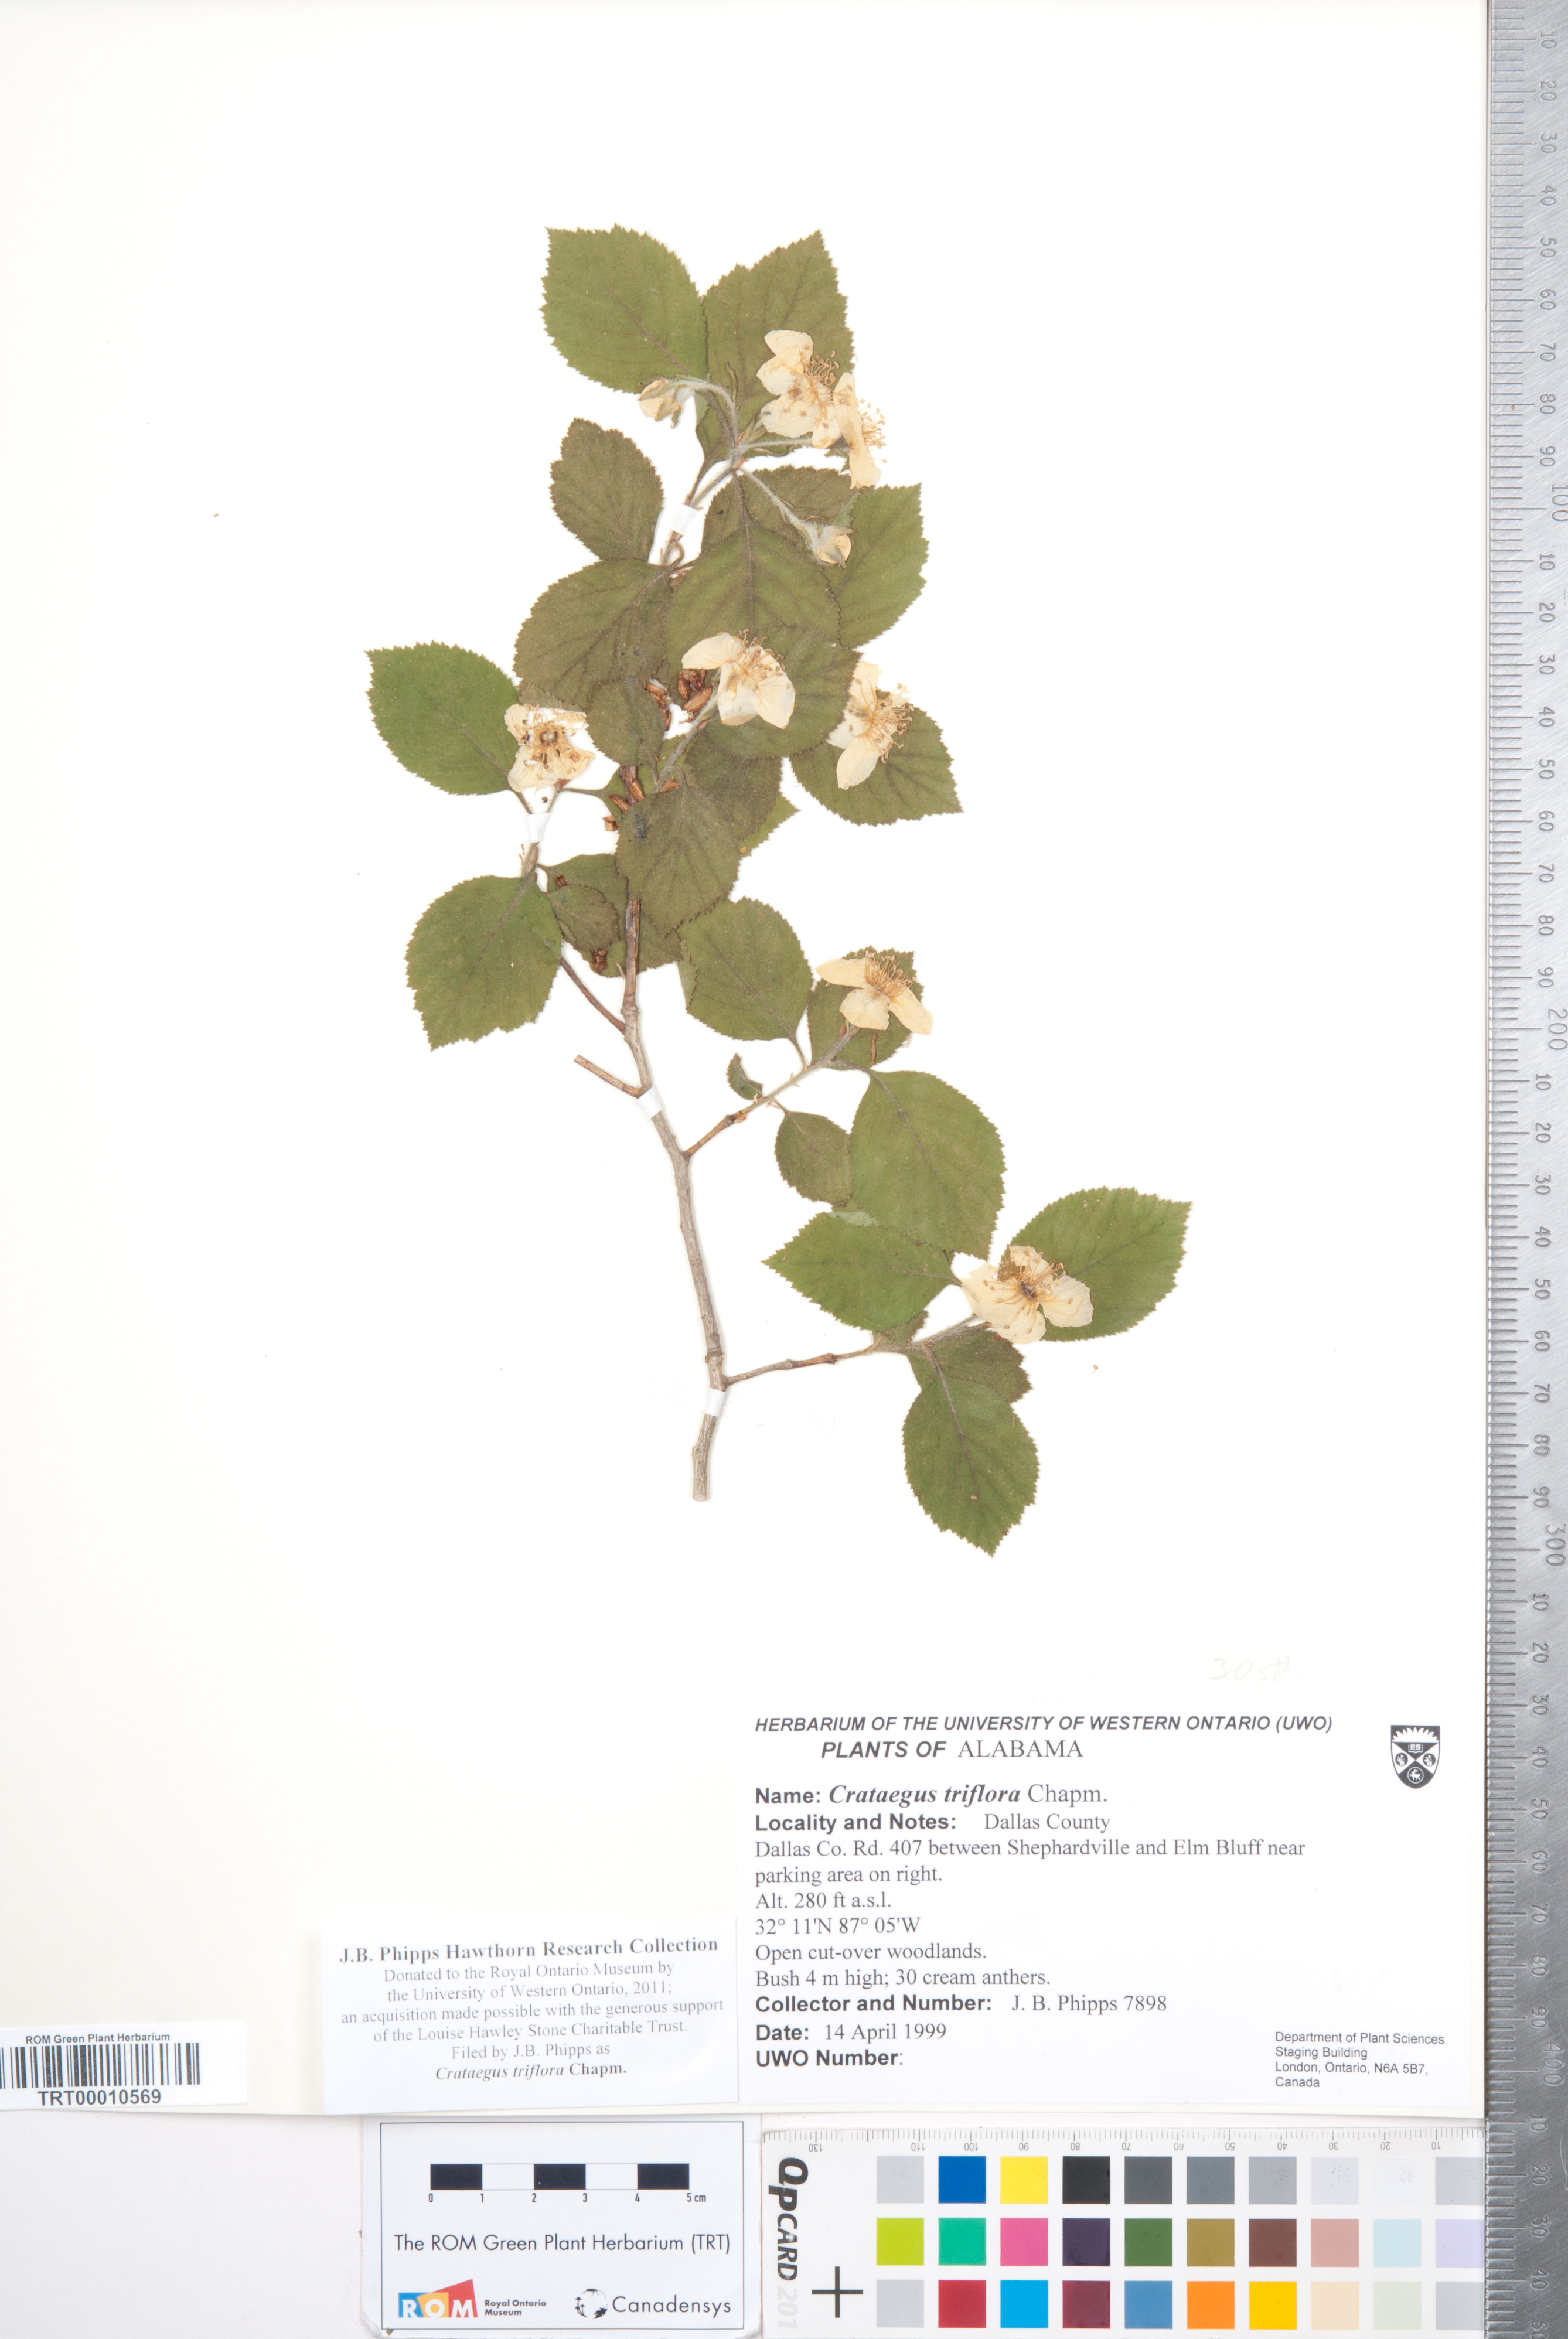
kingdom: Plantae
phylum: Tracheophyta
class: Magnoliopsida
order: Rosales
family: Rosaceae
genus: Crataegus
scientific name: Crataegus triflora
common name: Three-flower hawthorn
